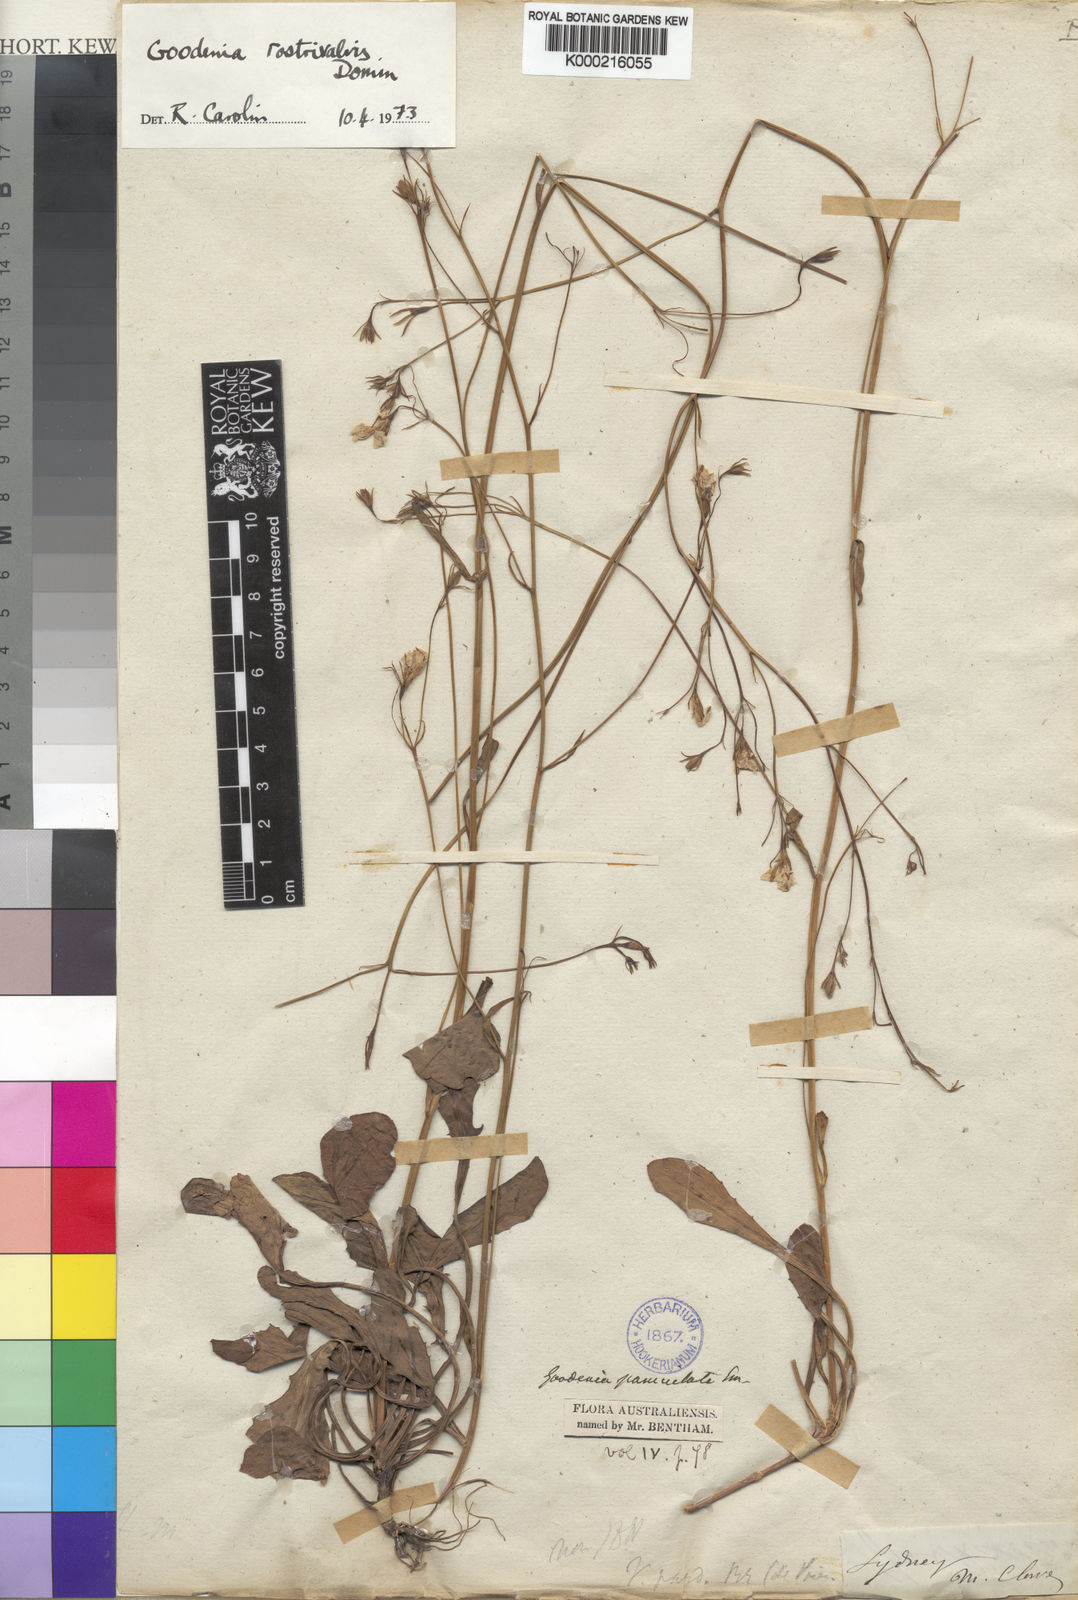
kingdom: Plantae
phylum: Tracheophyta
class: Magnoliopsida
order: Asterales
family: Goodeniaceae
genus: Goodenia
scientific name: Goodenia rostrivalvis
